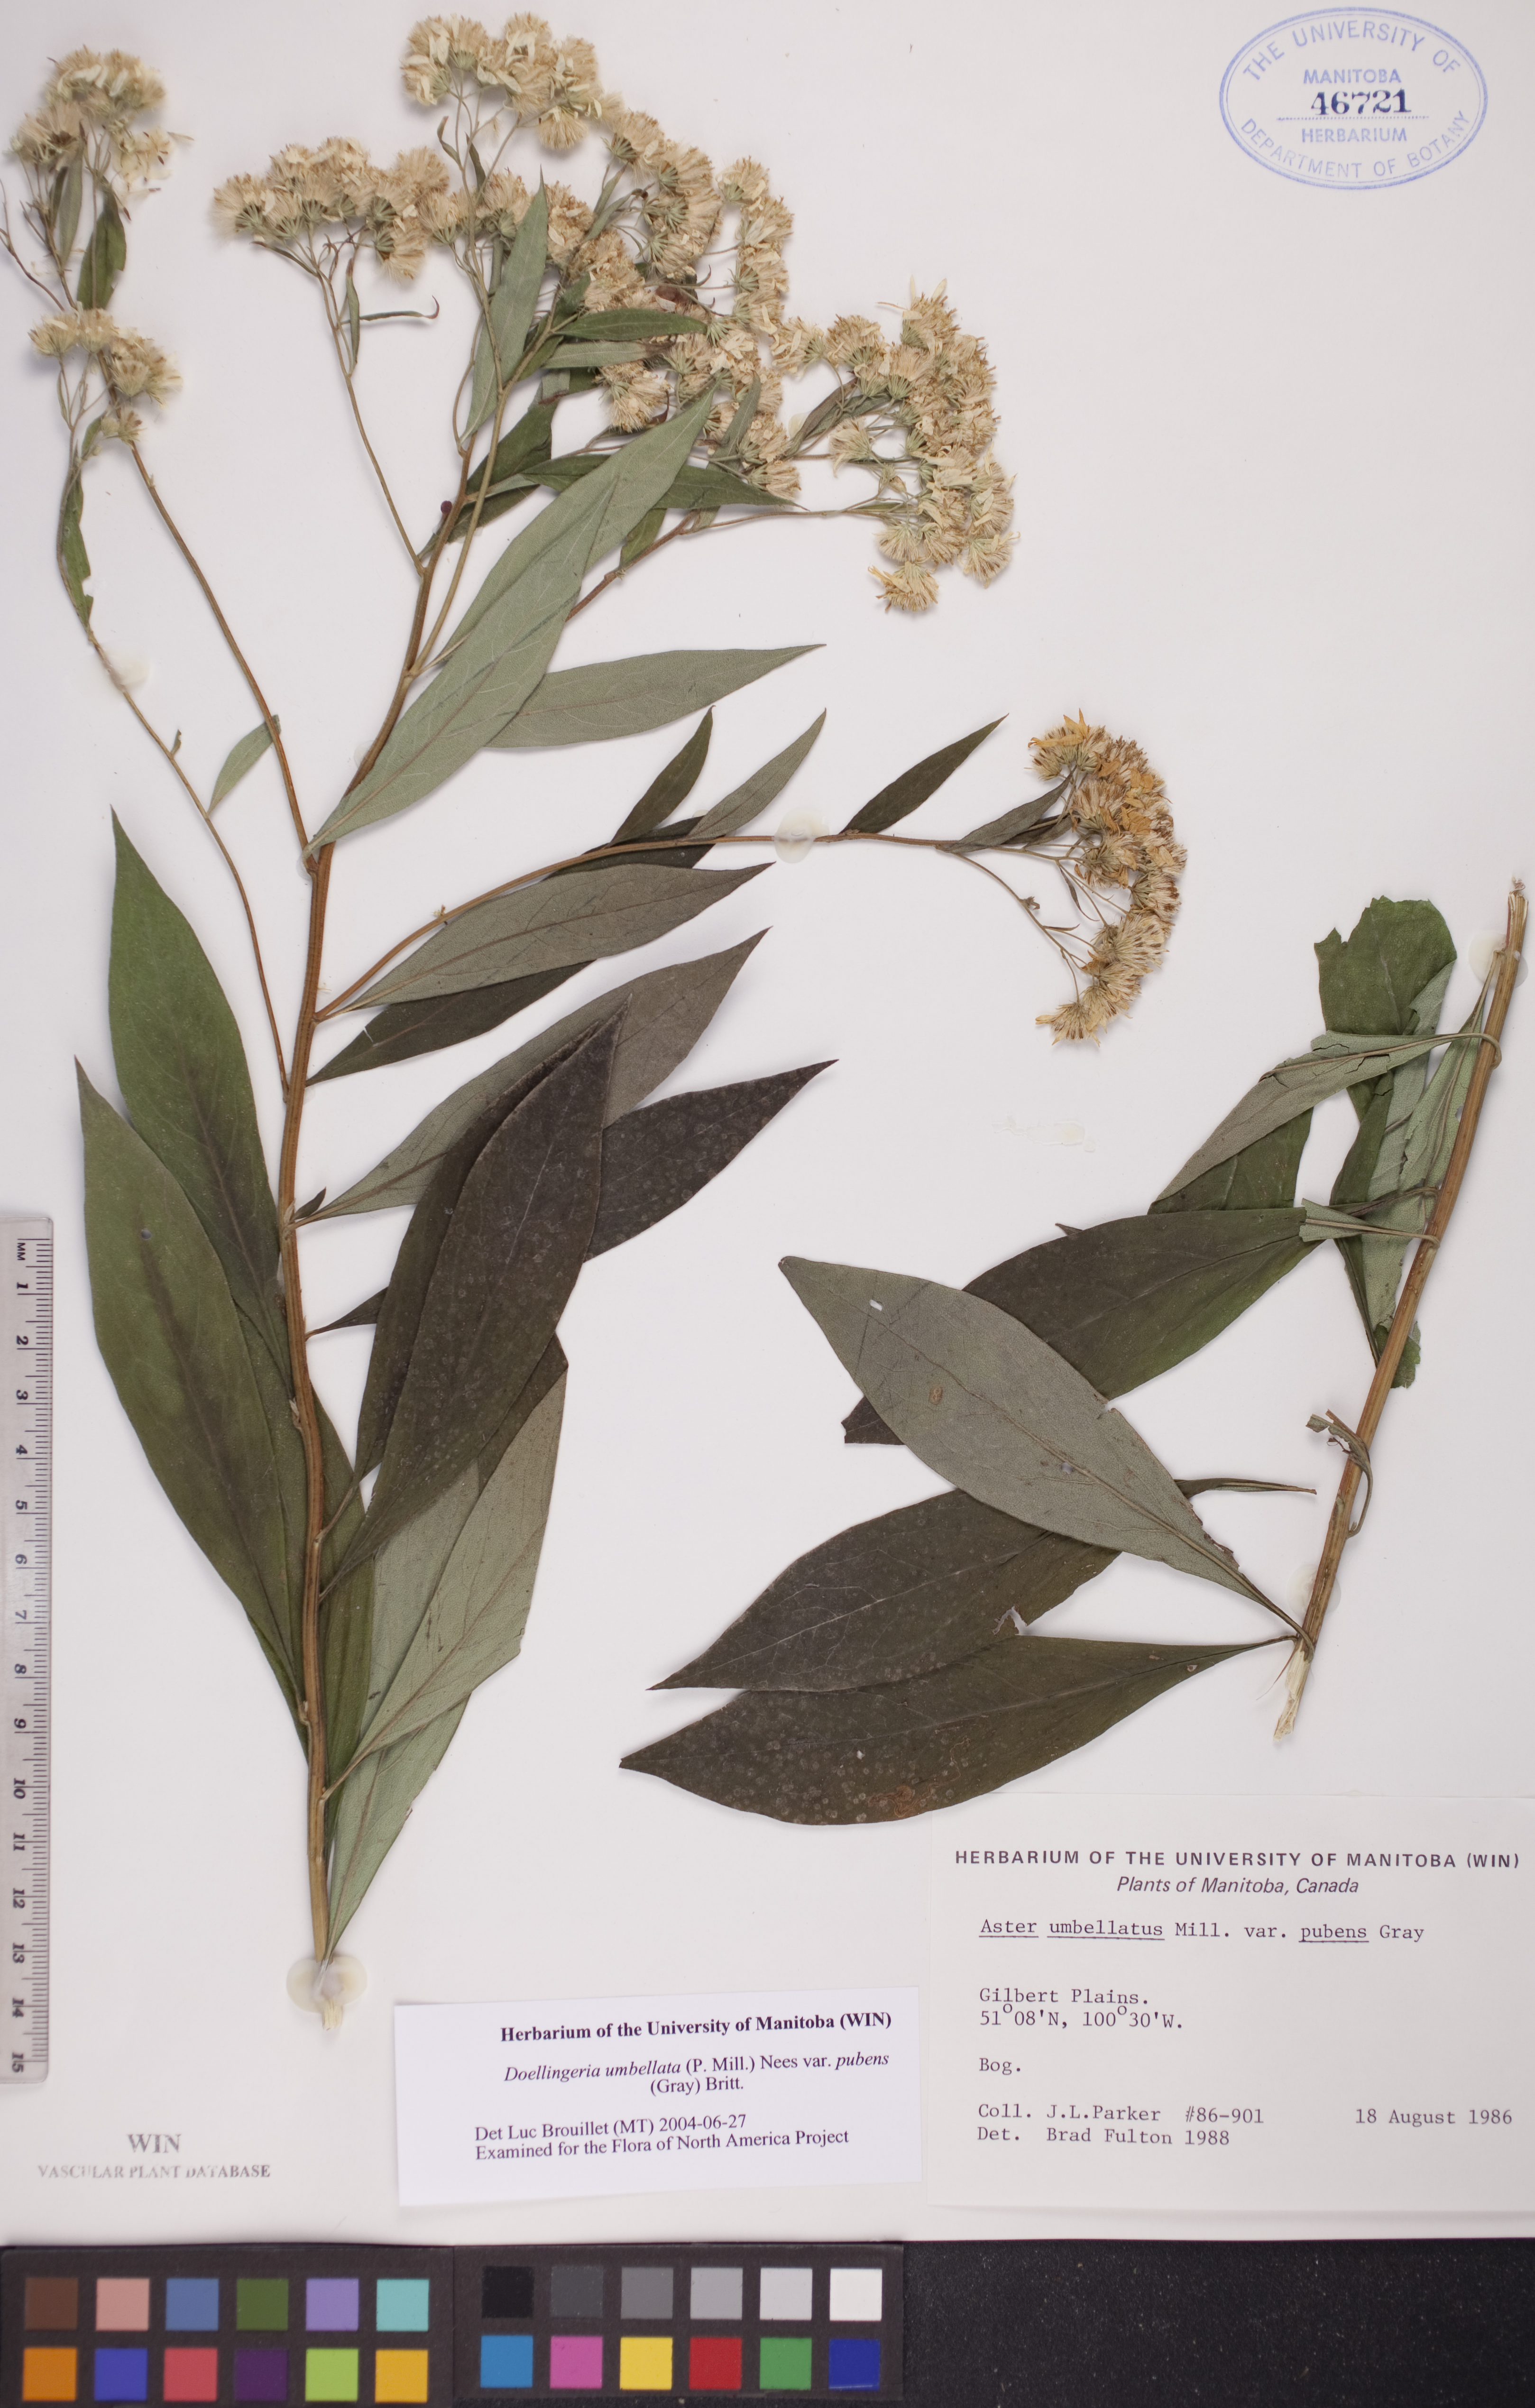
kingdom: Plantae
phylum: Tracheophyta
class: Magnoliopsida
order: Asterales
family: Asteraceae
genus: Doellingeria
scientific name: Doellingeria umbellata
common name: Flat-top white aster
